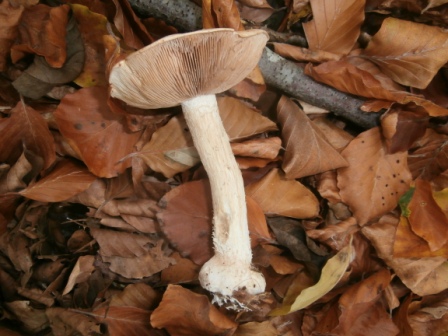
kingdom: Fungi
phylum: Basidiomycota
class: Agaricomycetes
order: Agaricales
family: Hymenogastraceae
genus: Hebeloma
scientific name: Hebeloma laterinum
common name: kakao-tåreblad
